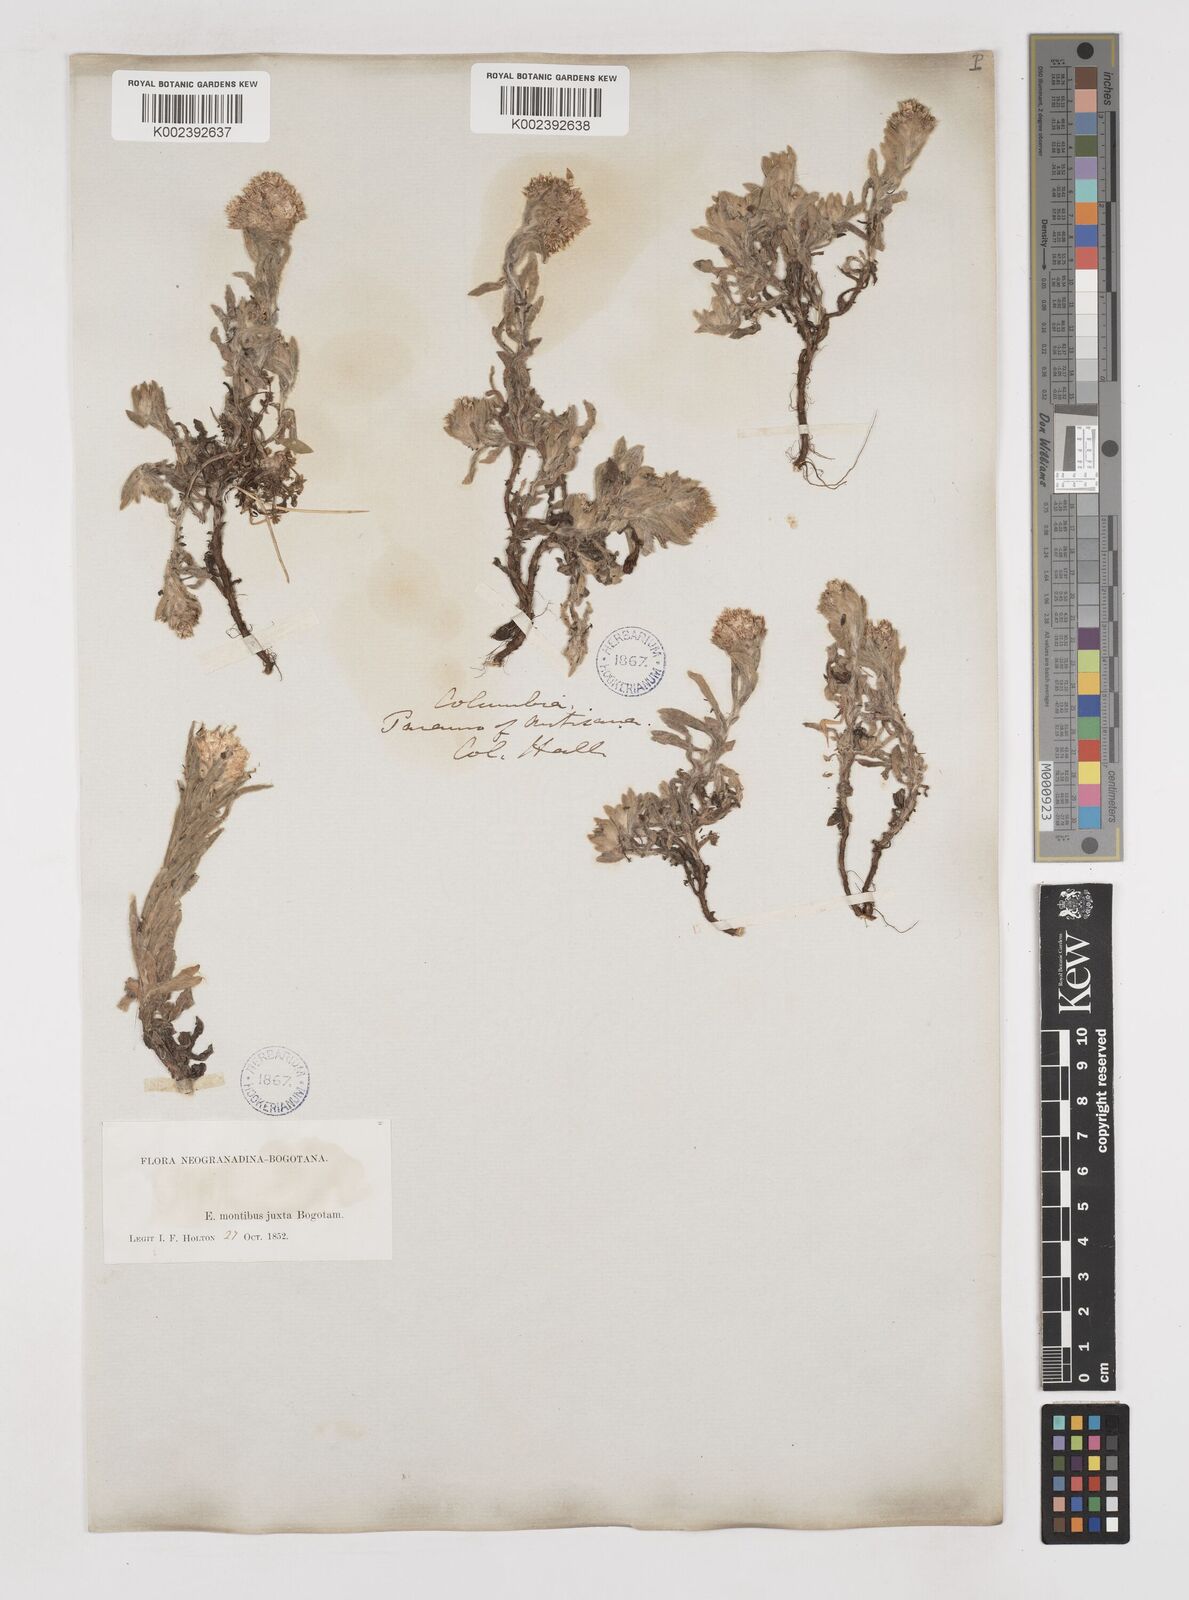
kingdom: Plantae
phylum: Tracheophyta
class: Magnoliopsida
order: Asterales
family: Asteraceae
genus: Gnaphalium
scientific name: Gnaphalium
